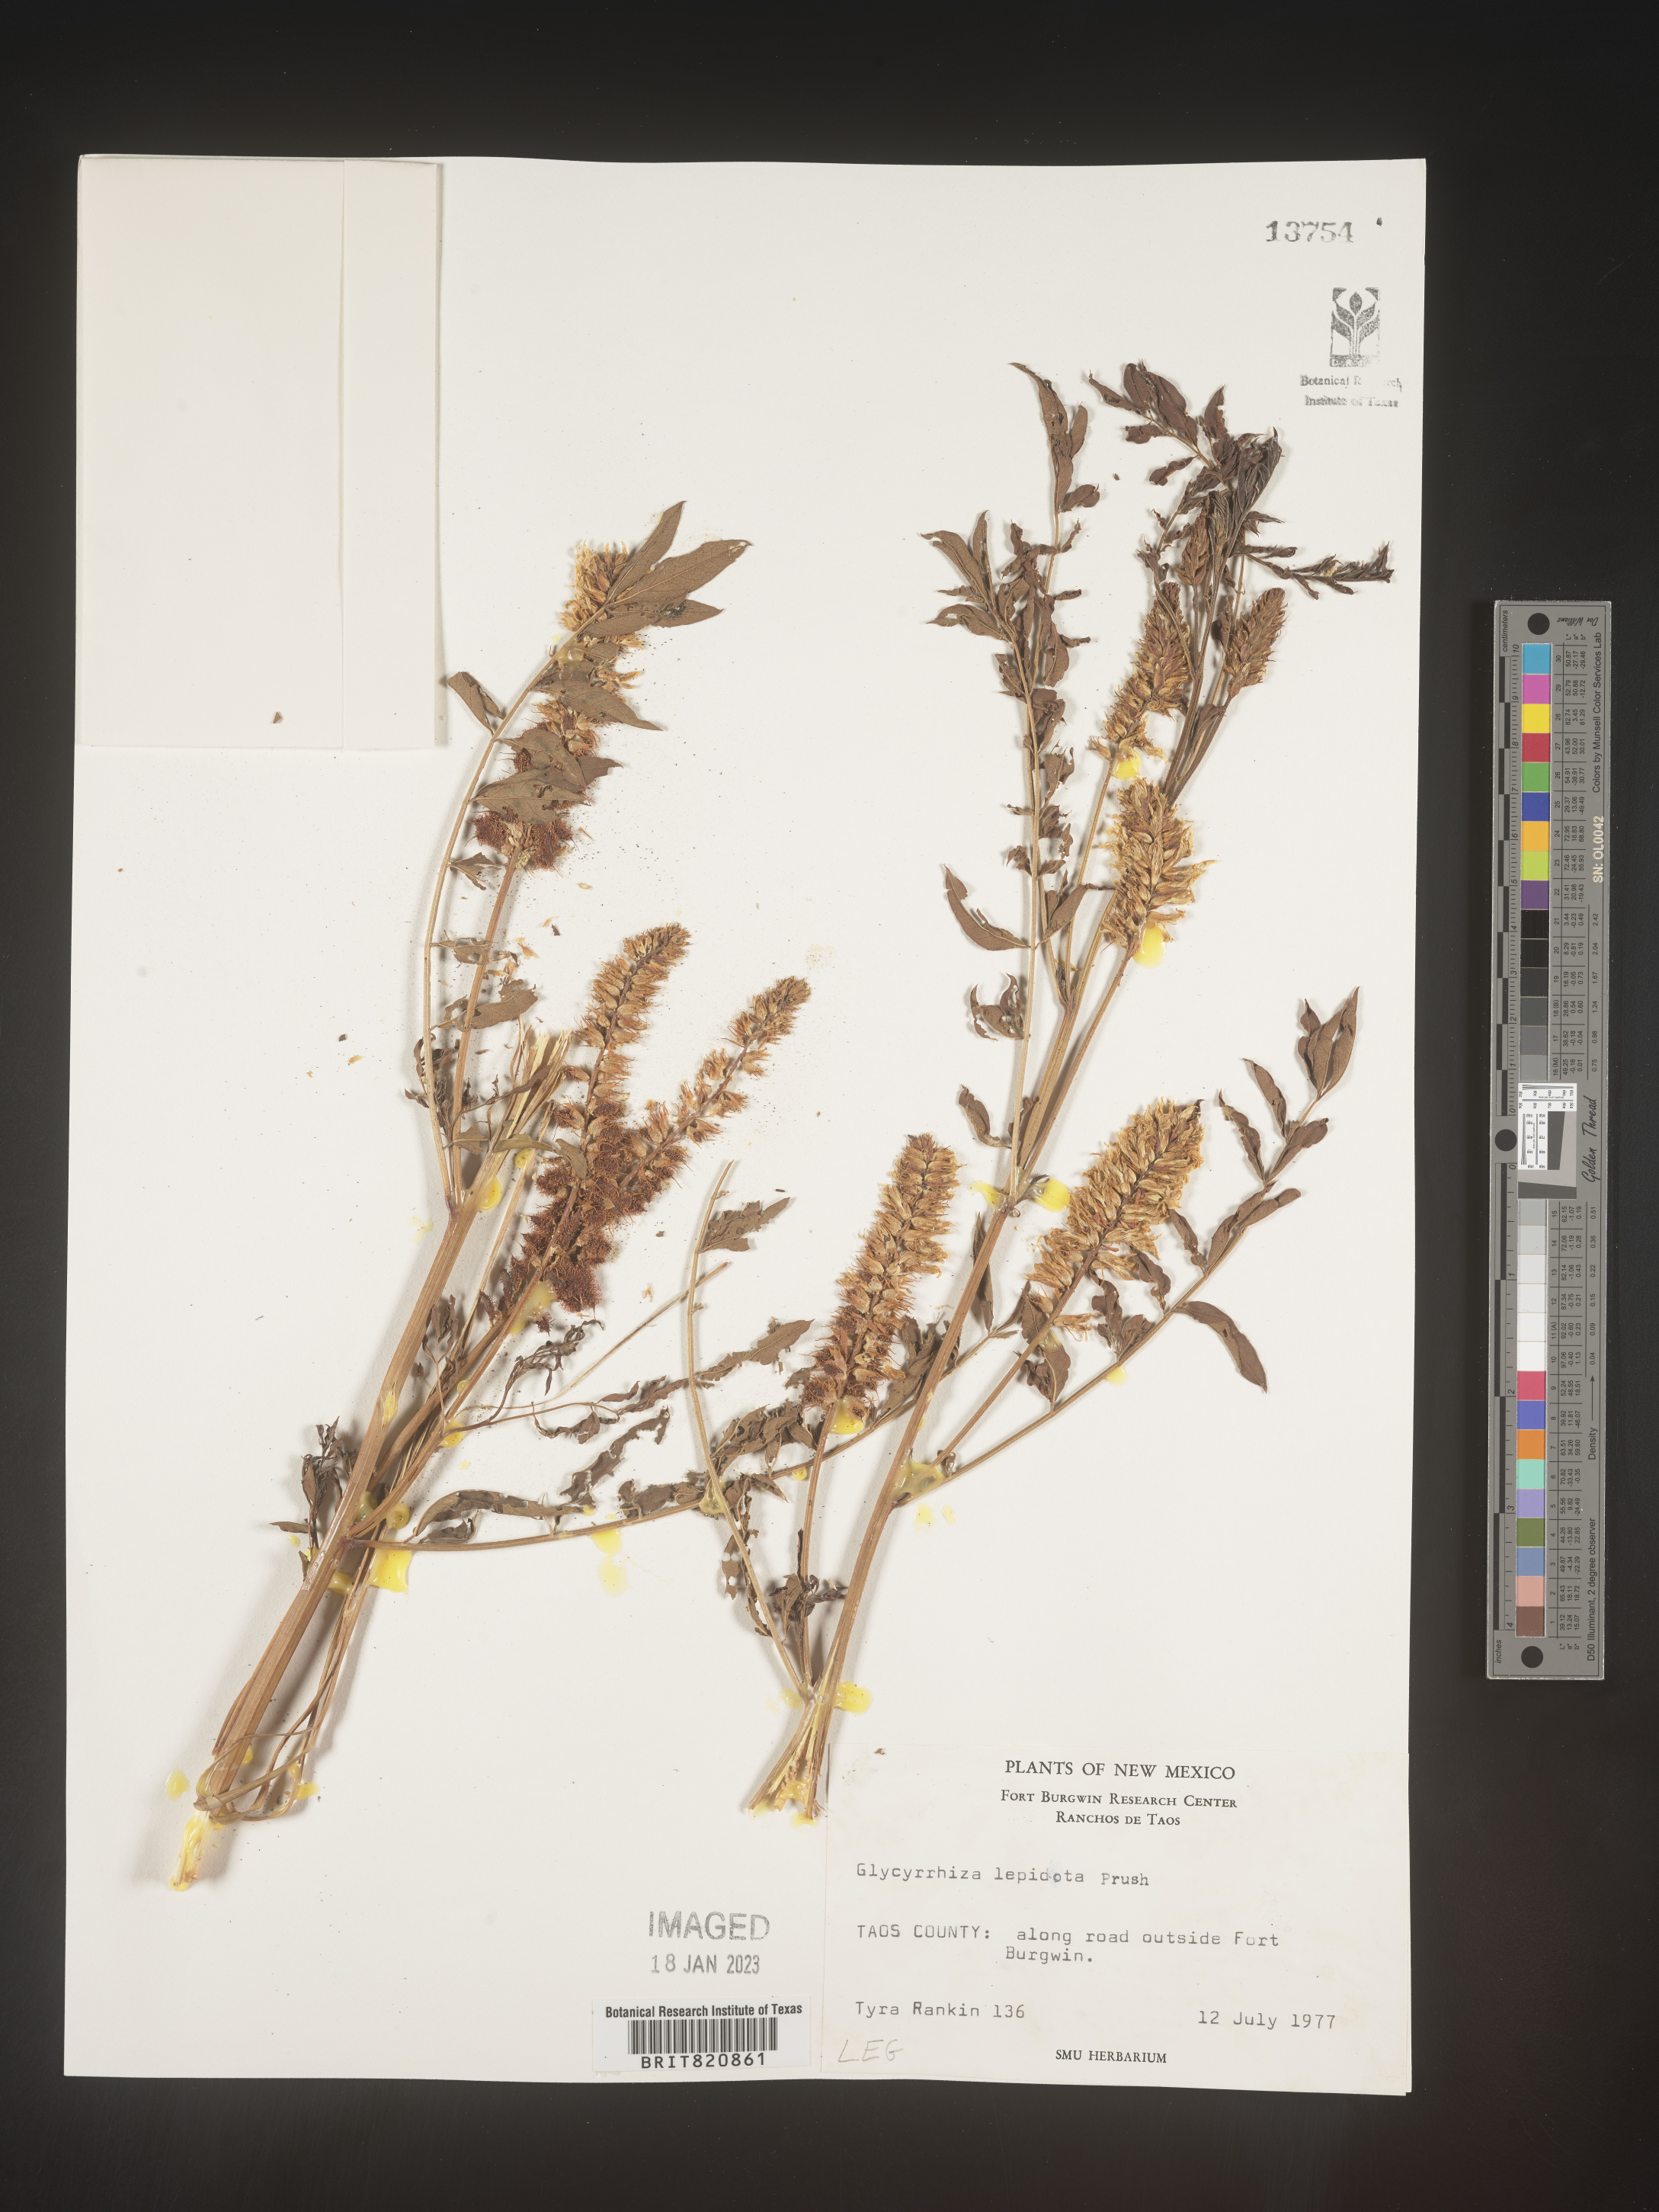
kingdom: Plantae
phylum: Tracheophyta
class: Magnoliopsida
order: Fabales
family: Fabaceae
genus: Glycyrrhiza
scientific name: Glycyrrhiza lepidota
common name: American liquorice
